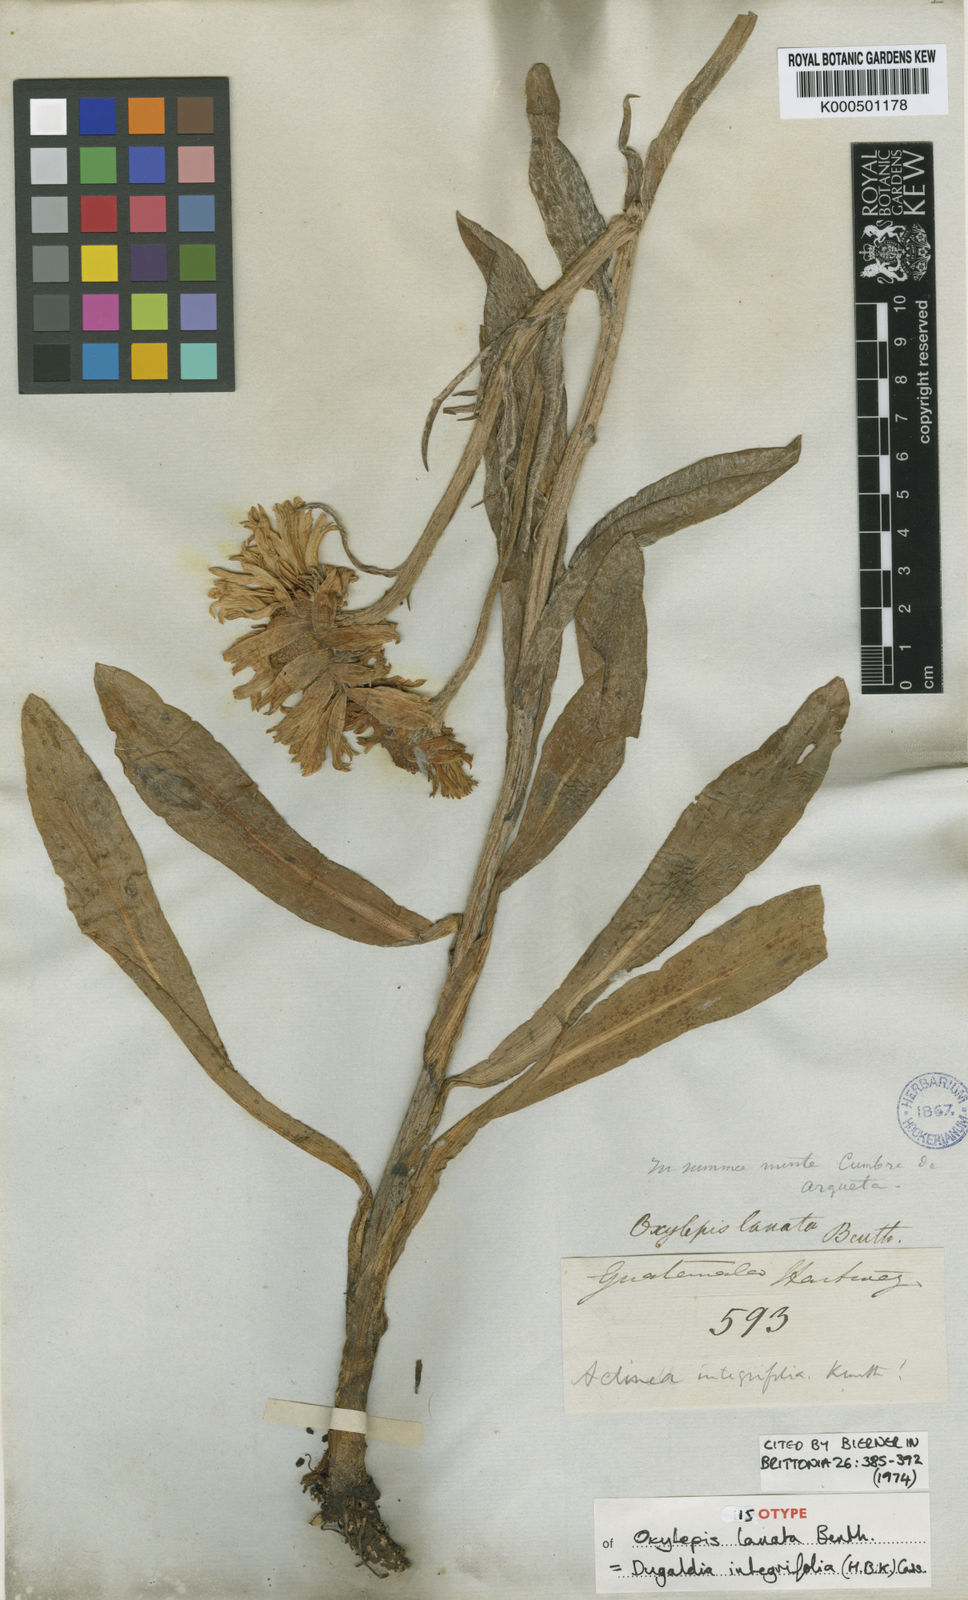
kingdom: Plantae
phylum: Tracheophyta
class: Magnoliopsida
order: Asterales
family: Asteraceae
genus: Hymenoxys
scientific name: Hymenoxys integrifolia
